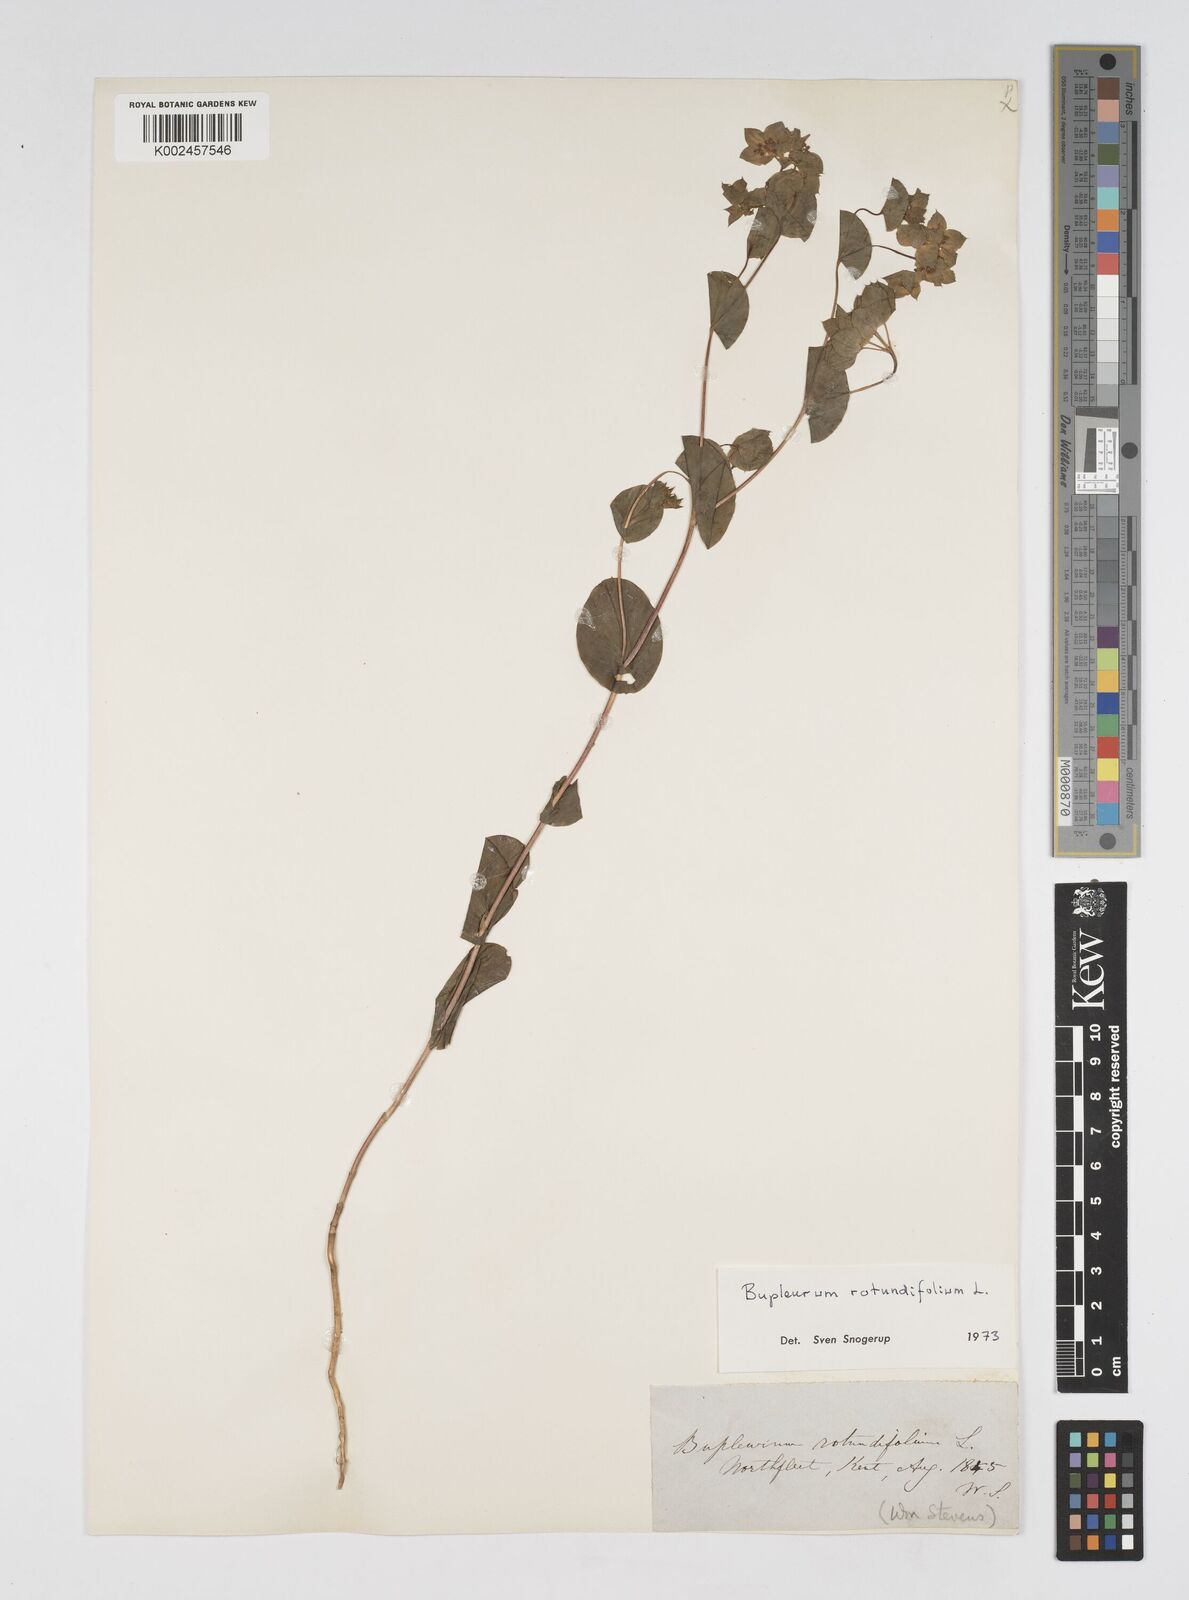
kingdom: Plantae
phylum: Tracheophyta
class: Magnoliopsida
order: Apiales
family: Apiaceae
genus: Bupleurum
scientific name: Bupleurum rotundifolium
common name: Thorow-wax
